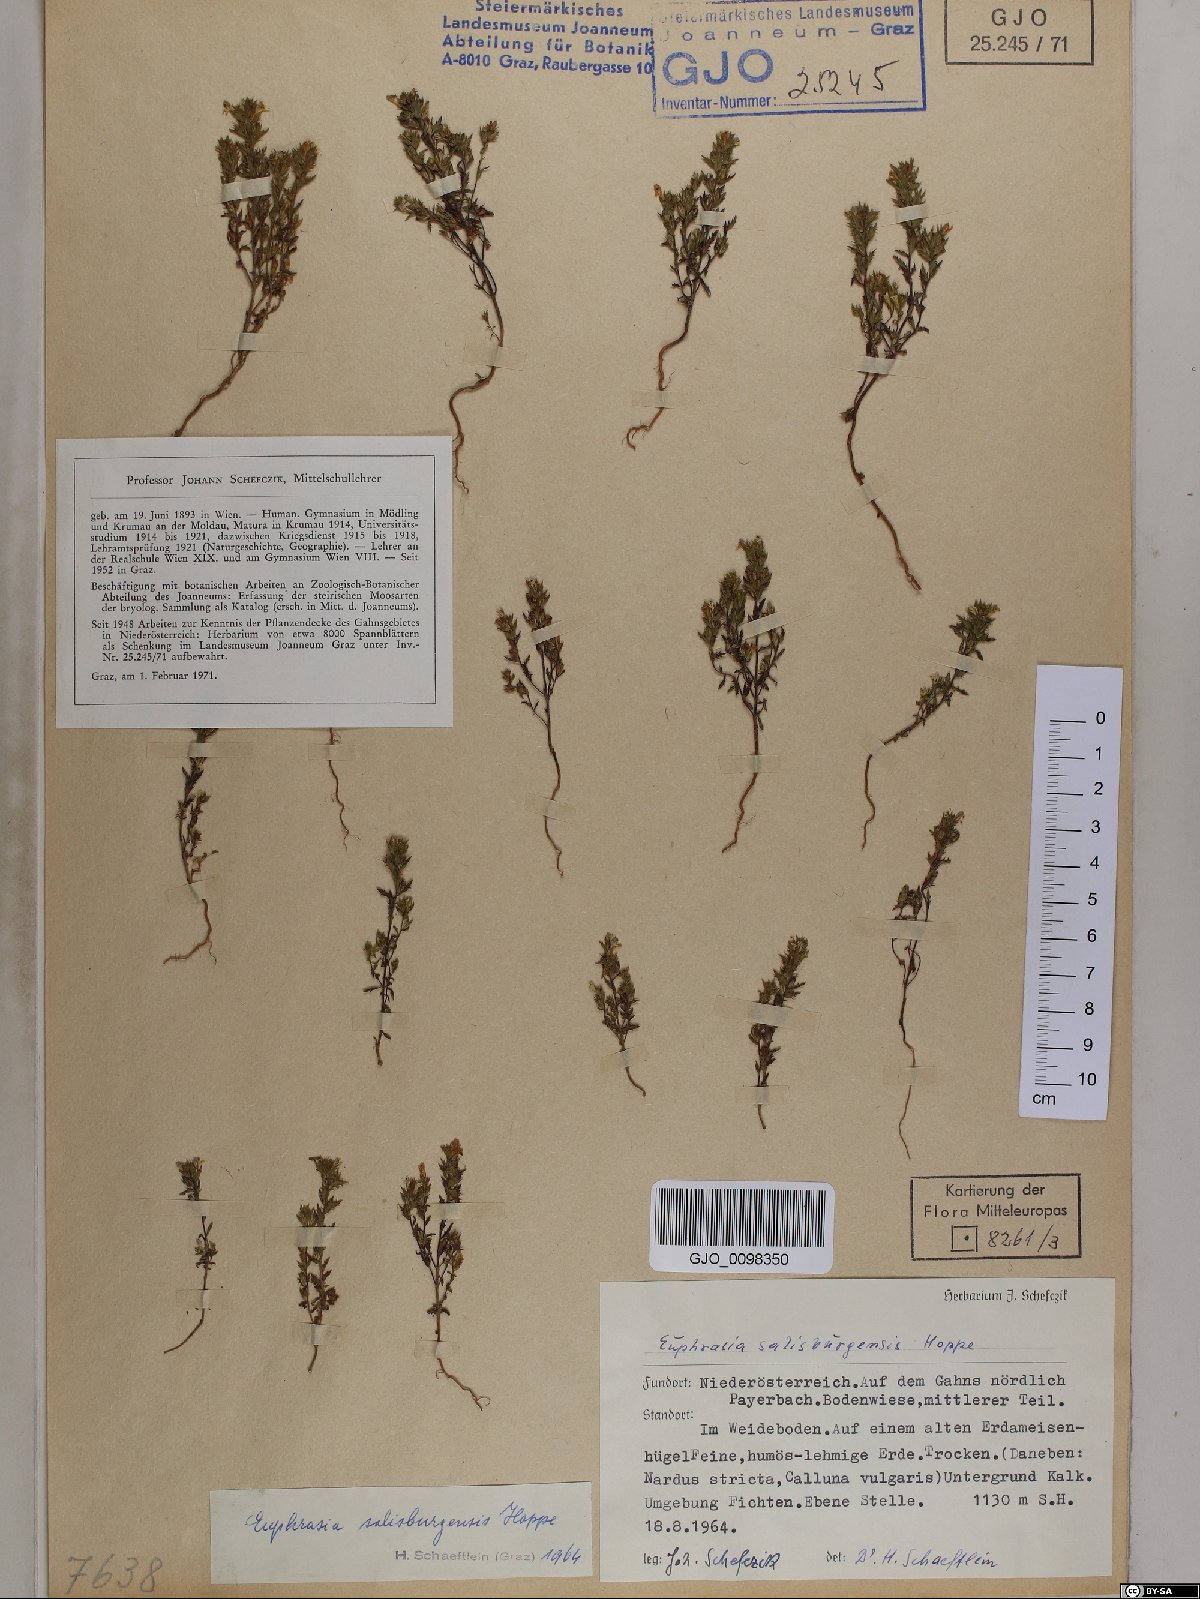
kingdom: Plantae
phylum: Tracheophyta
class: Magnoliopsida
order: Lamiales
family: Orobanchaceae
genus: Euphrasia
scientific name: Euphrasia salisburgensis
